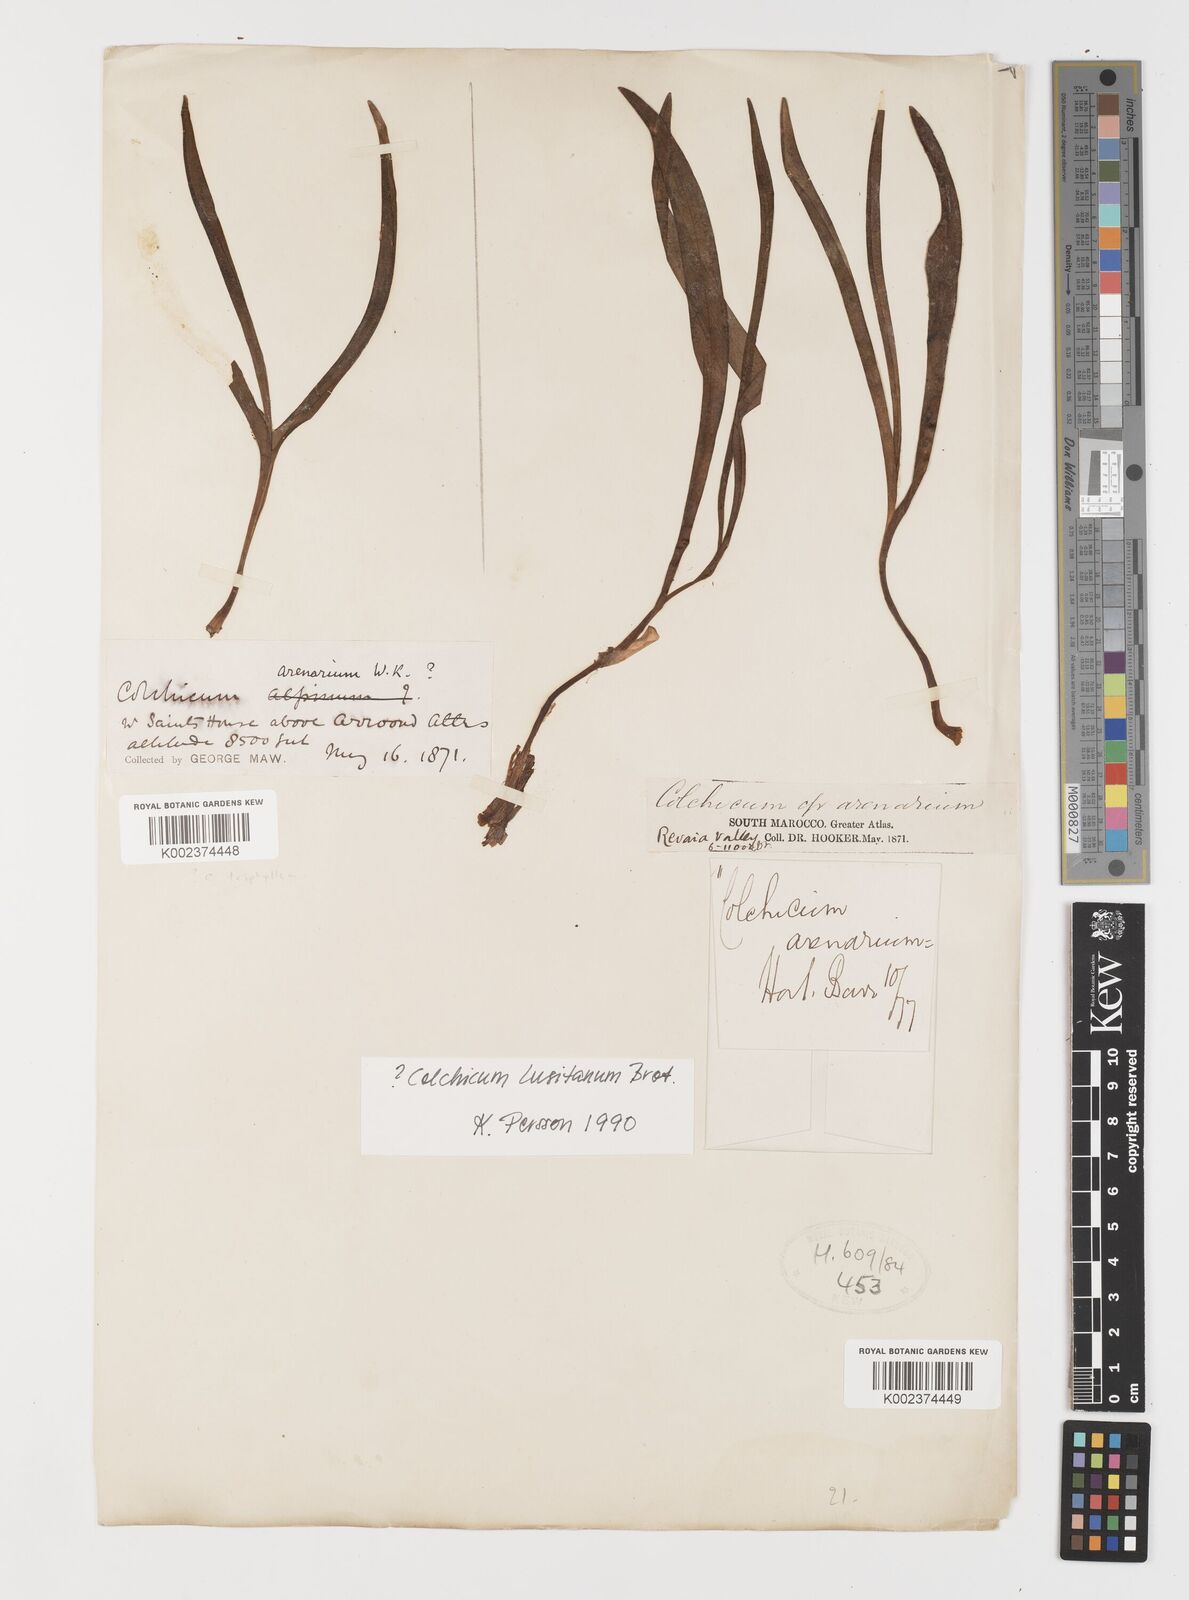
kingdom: Plantae
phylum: Tracheophyta
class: Liliopsida
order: Liliales
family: Colchicaceae
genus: Colchicum
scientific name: Colchicum lusitanum
